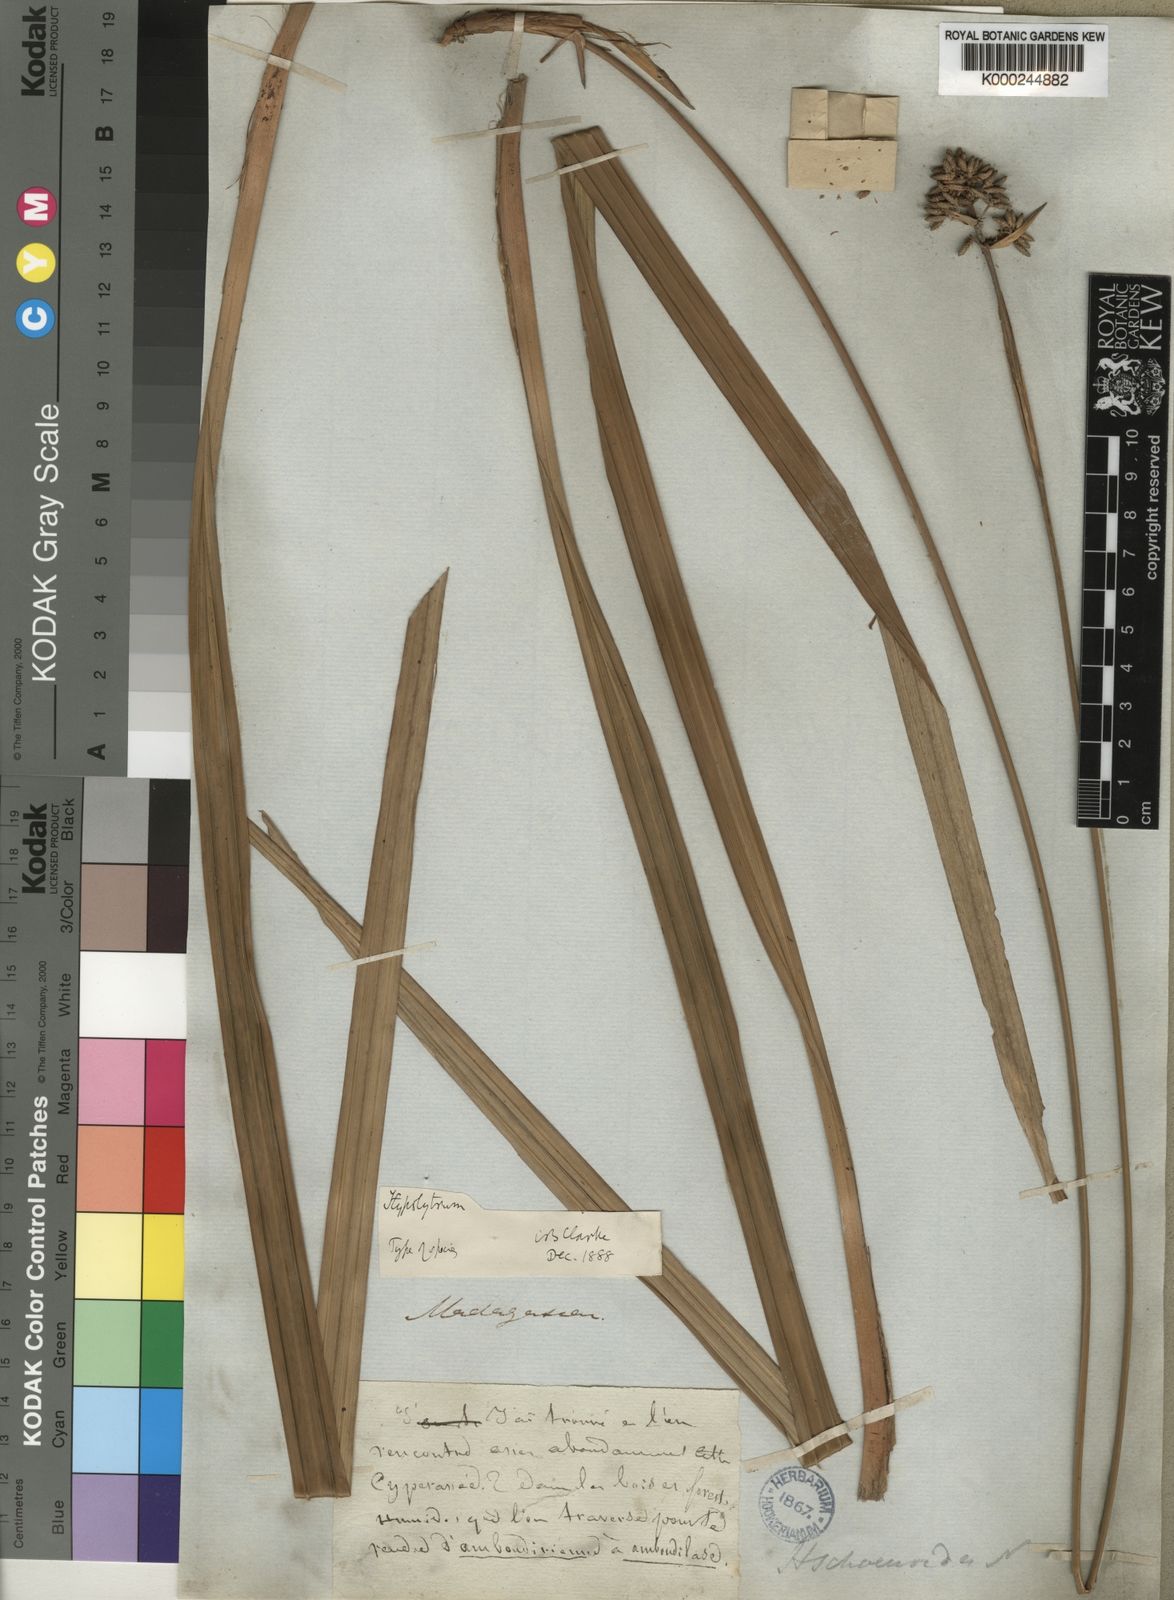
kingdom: Plantae
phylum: Tracheophyta
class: Liliopsida
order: Poales
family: Cyperaceae
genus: Hypolytrum
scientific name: Hypolytrum
